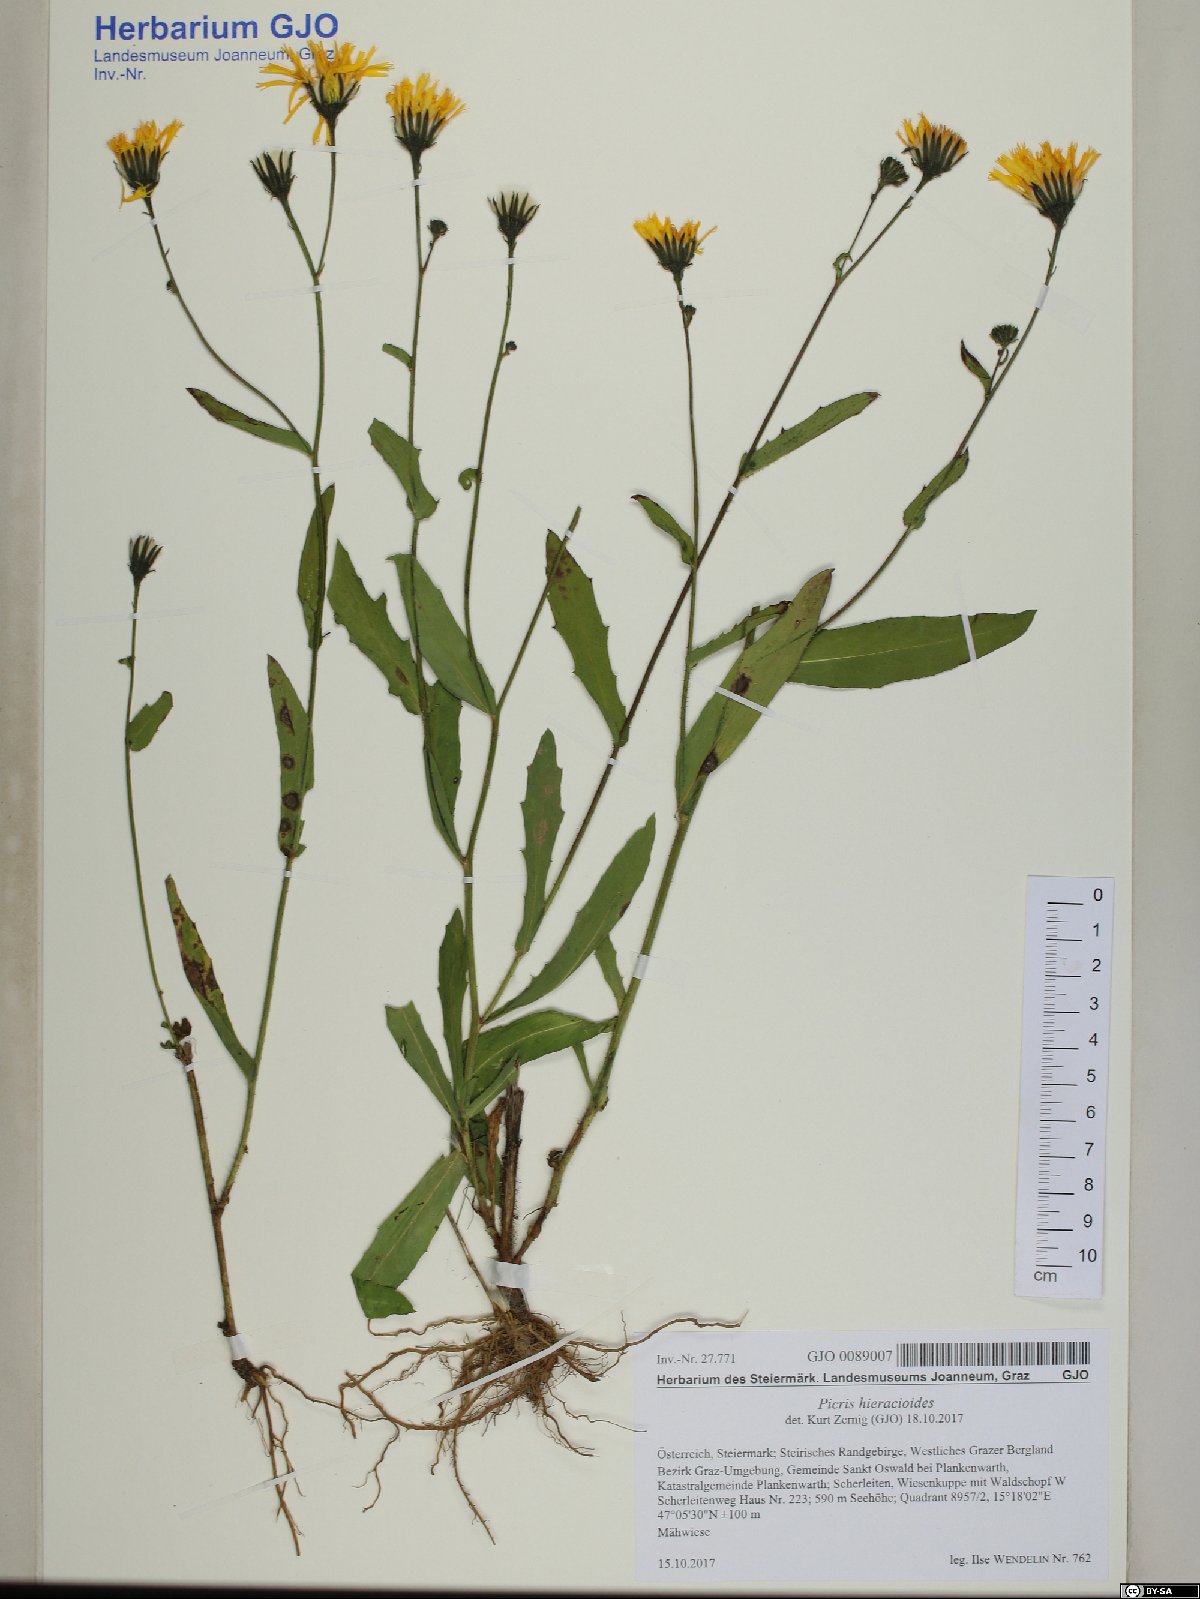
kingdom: Plantae
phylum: Tracheophyta
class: Magnoliopsida
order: Asterales
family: Asteraceae
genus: Picris
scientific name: Picris hieracioides
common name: Hawkweed oxtongue
